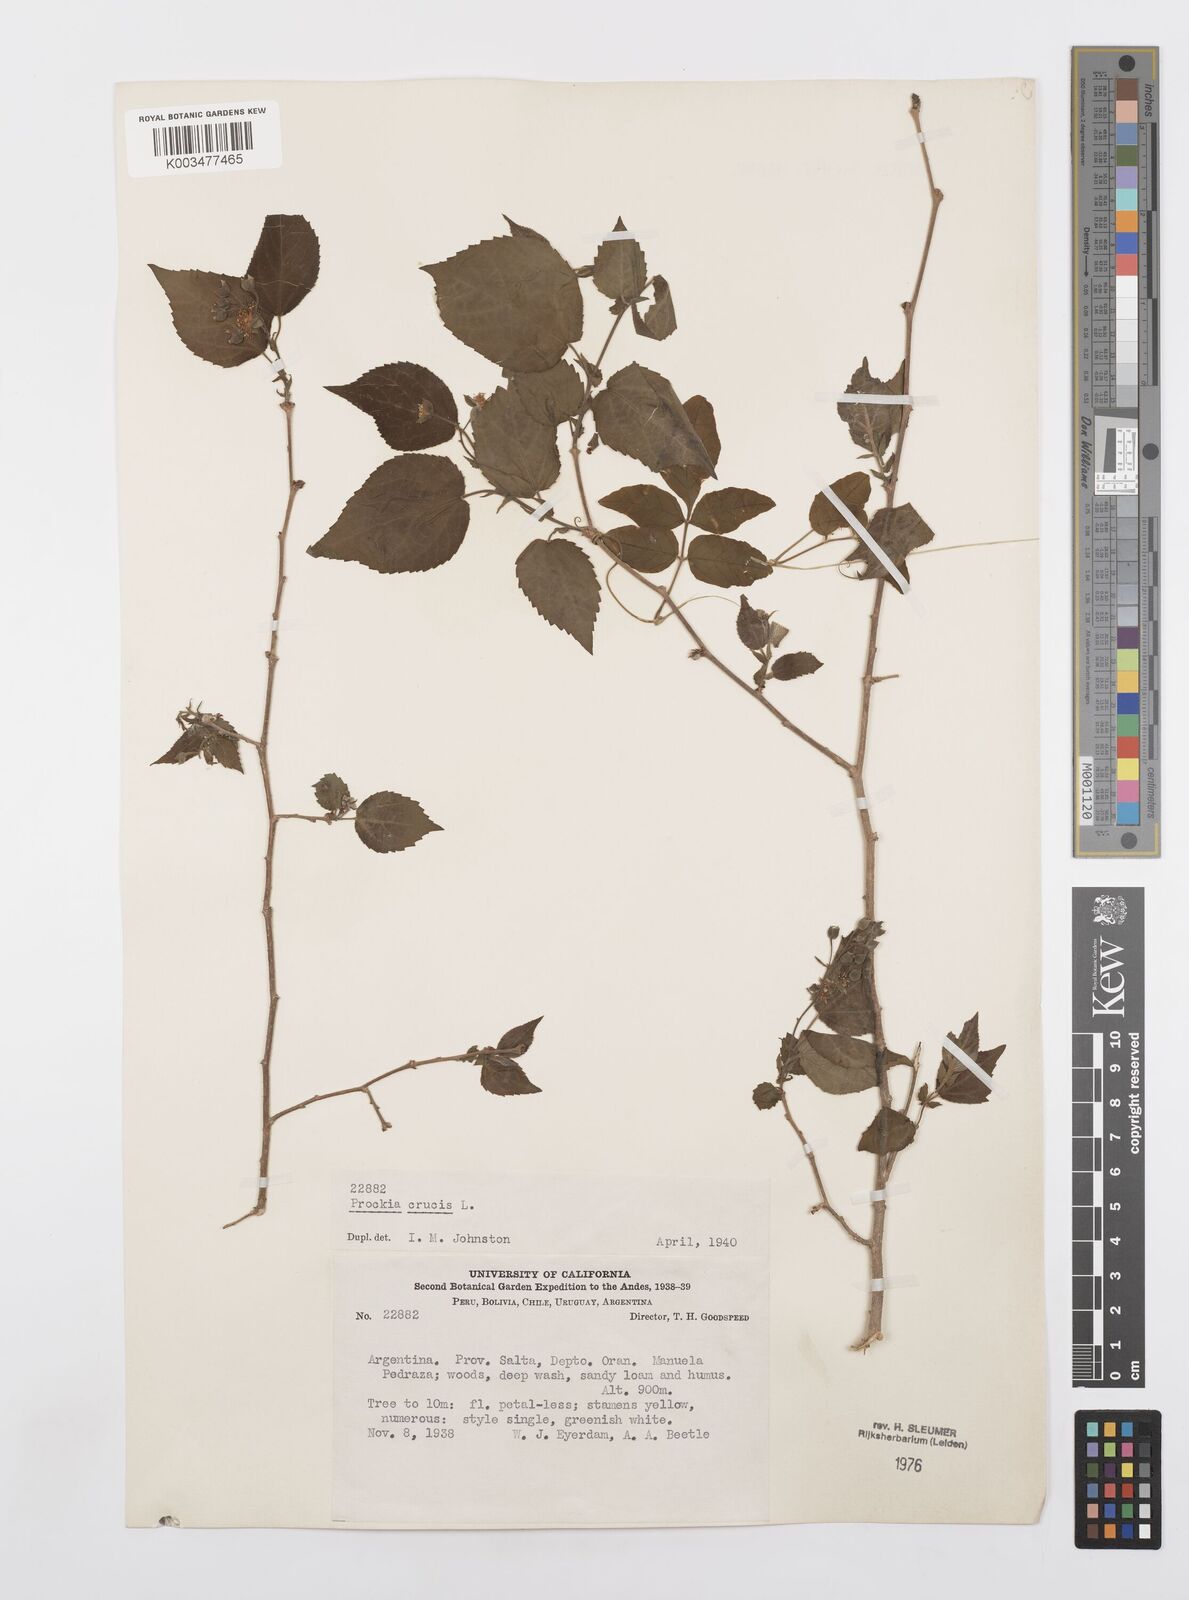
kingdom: Plantae
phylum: Tracheophyta
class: Magnoliopsida
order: Malpighiales
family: Salicaceae
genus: Prockia
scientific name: Prockia crucis
